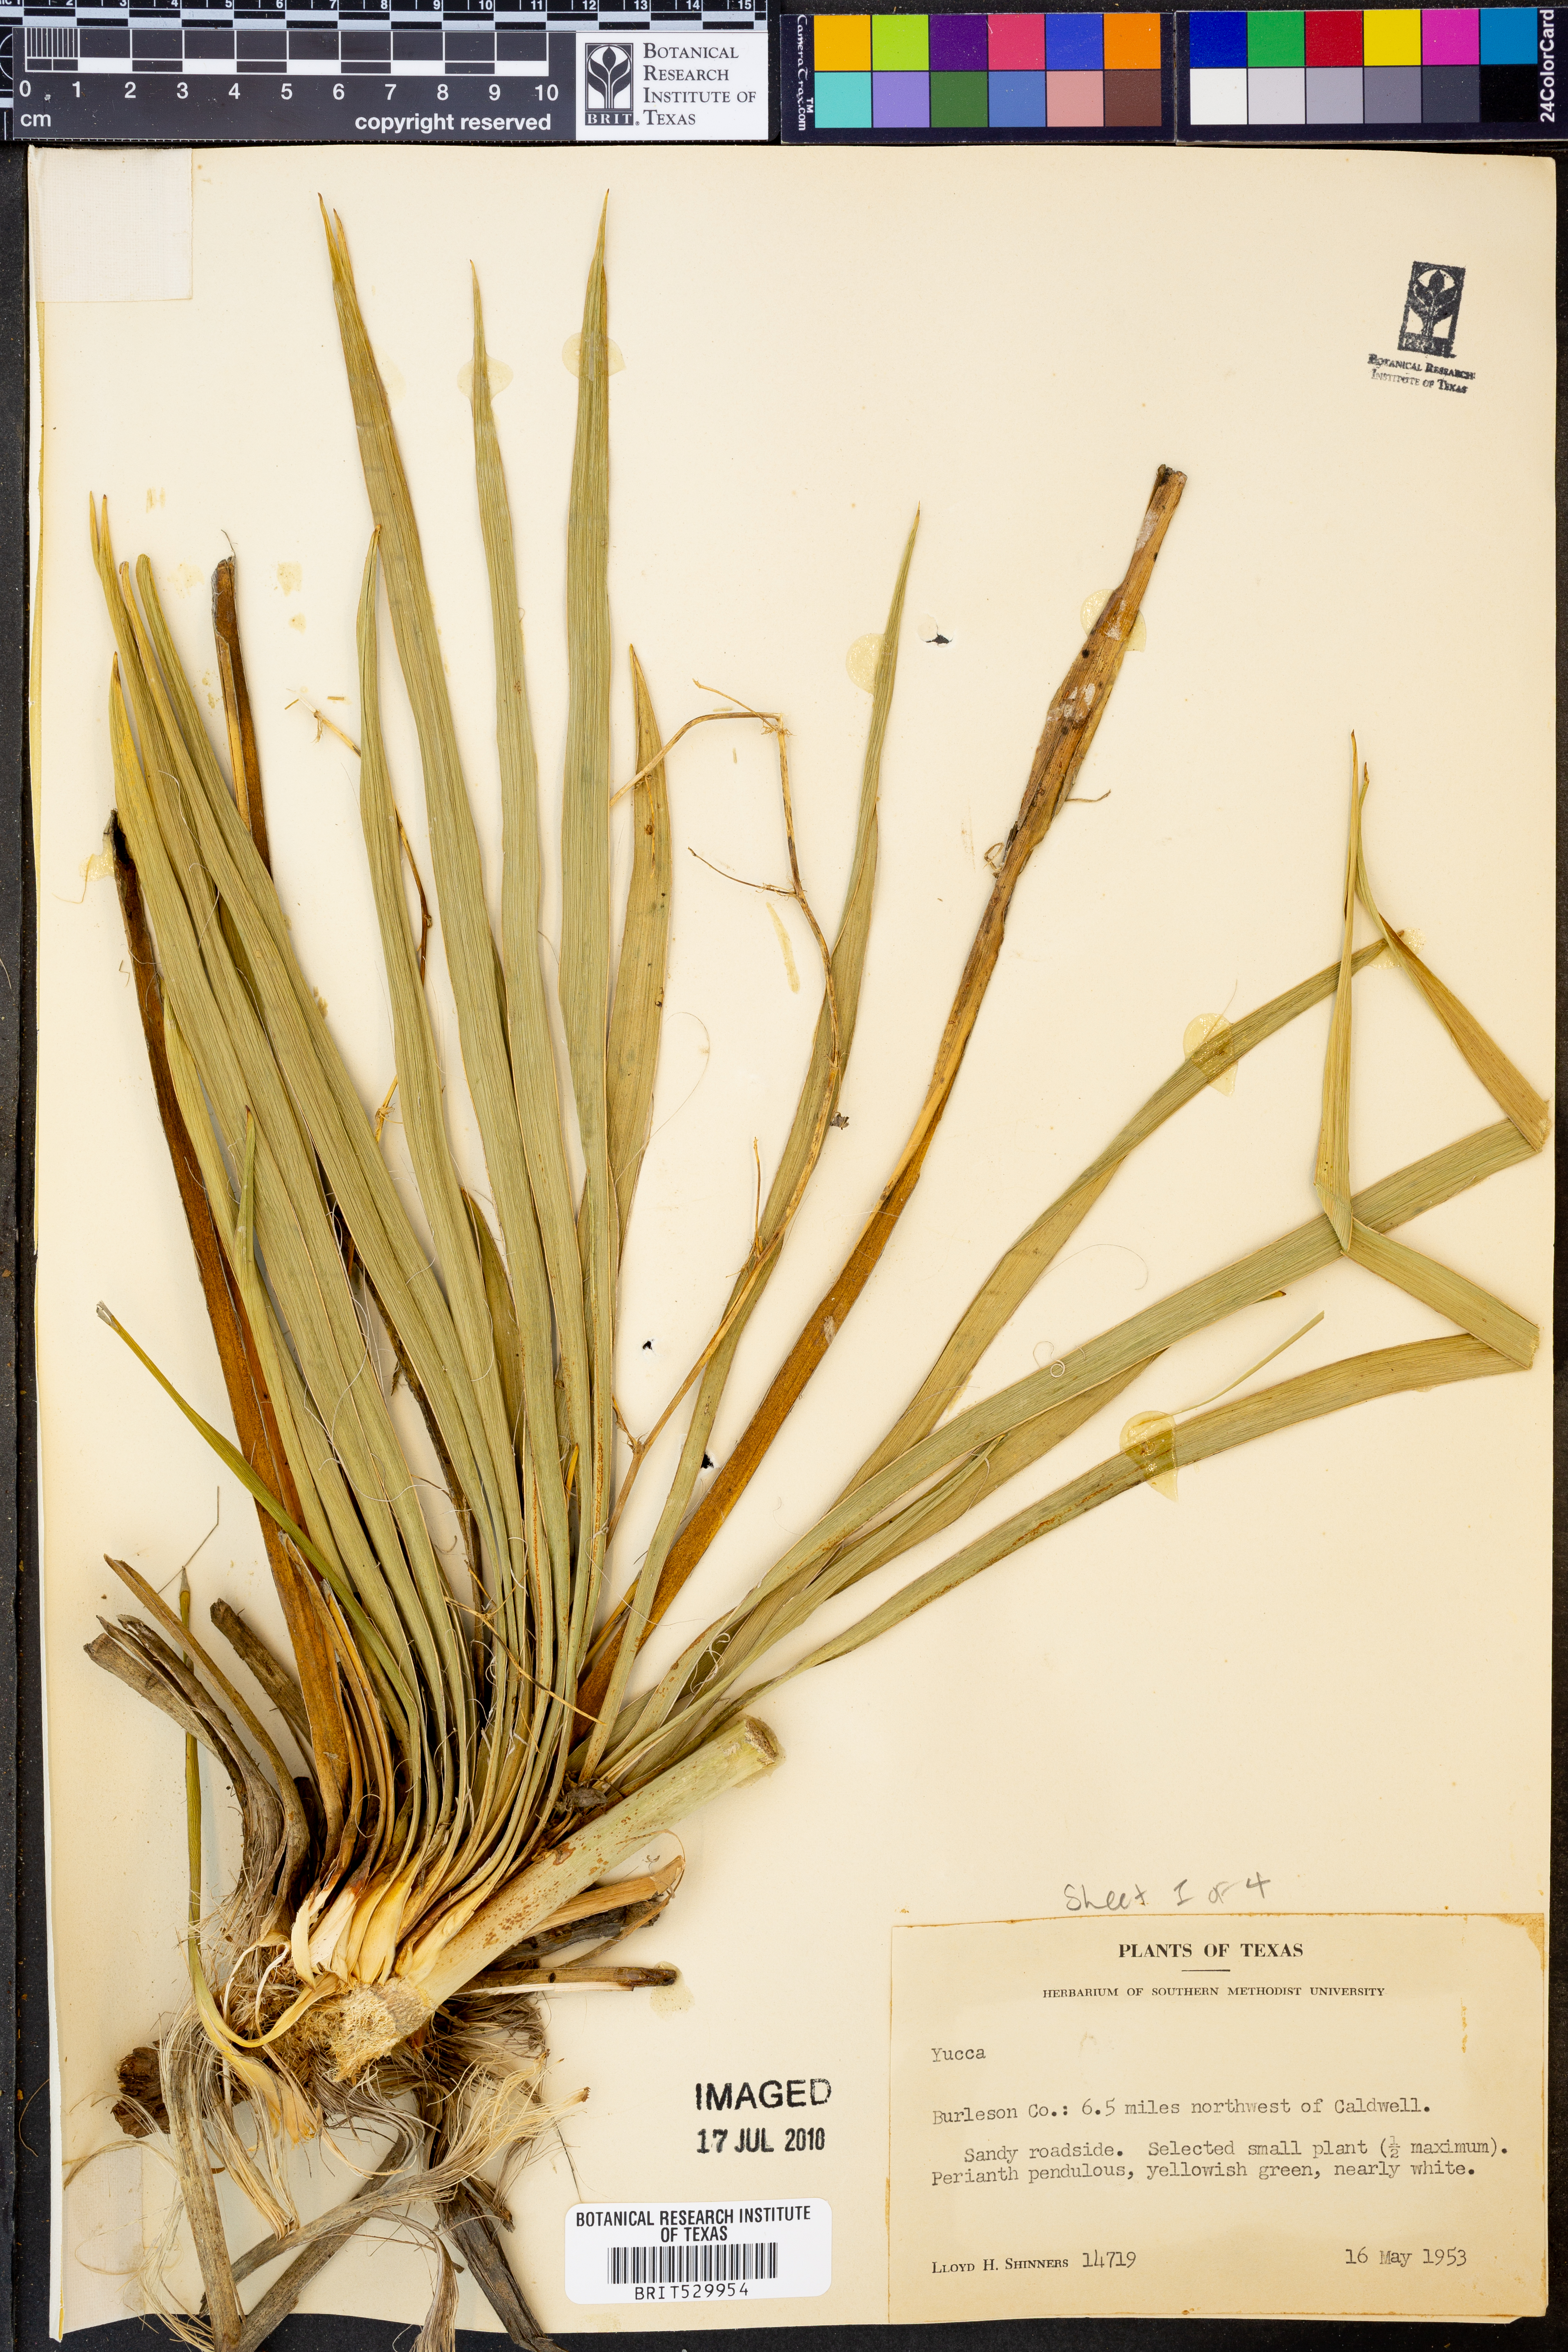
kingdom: Plantae
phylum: Tracheophyta
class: Liliopsida
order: Asparagales
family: Asparagaceae
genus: Yucca
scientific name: Yucca
